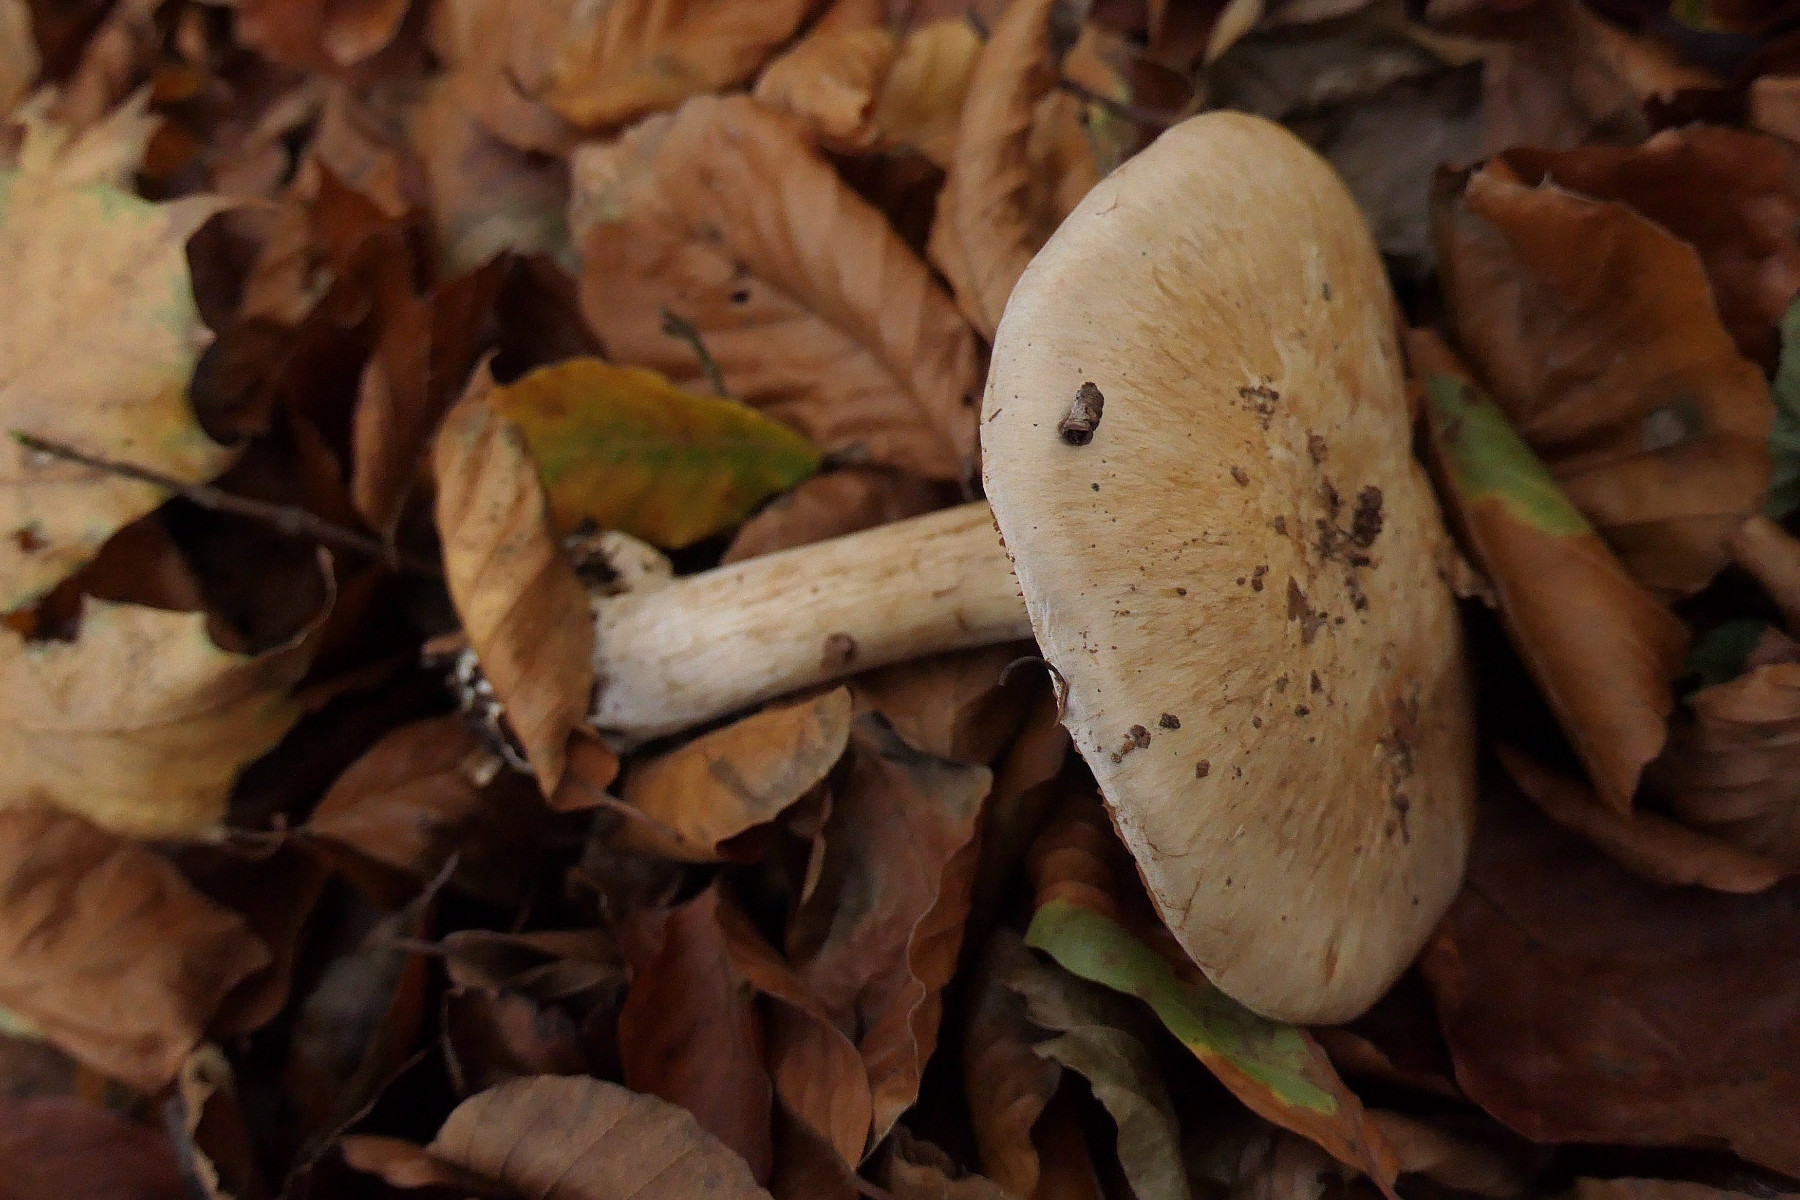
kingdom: Fungi
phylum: Basidiomycota
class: Agaricomycetes
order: Agaricales
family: Cortinariaceae
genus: Cortinarius
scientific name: Cortinarius
